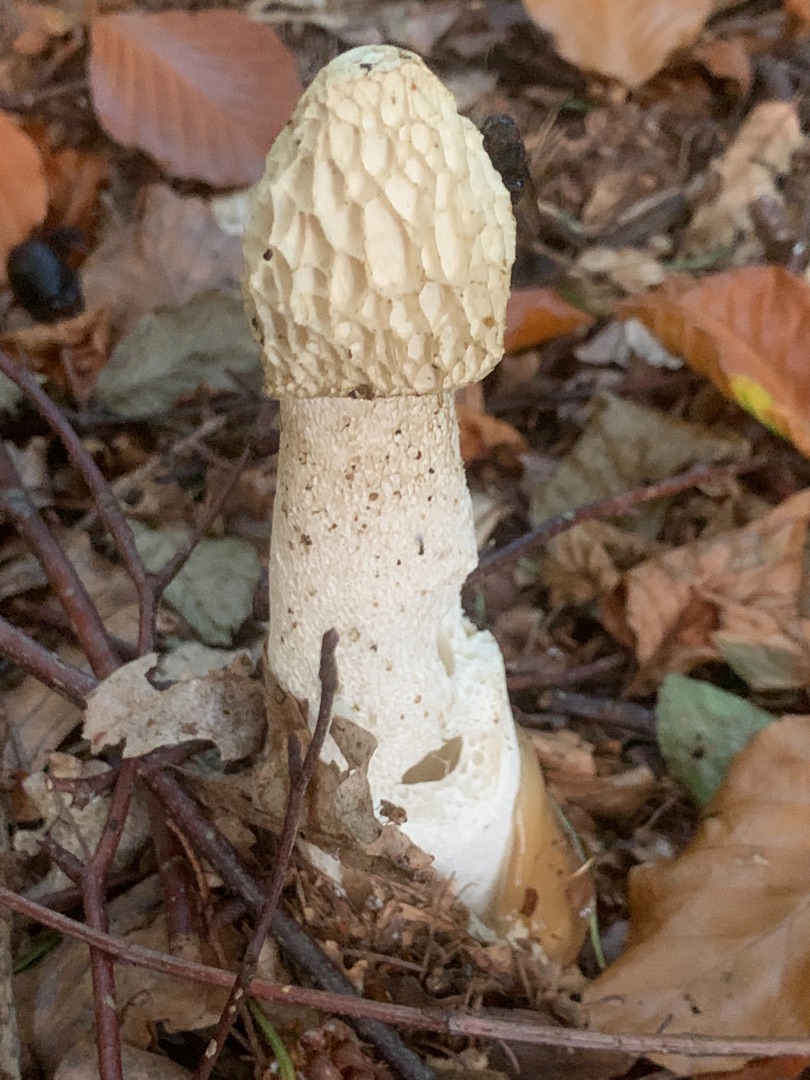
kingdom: Fungi
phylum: Basidiomycota
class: Agaricomycetes
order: Phallales
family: Phallaceae
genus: Phallus
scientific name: Phallus impudicus
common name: Almindelig stinksvamp
